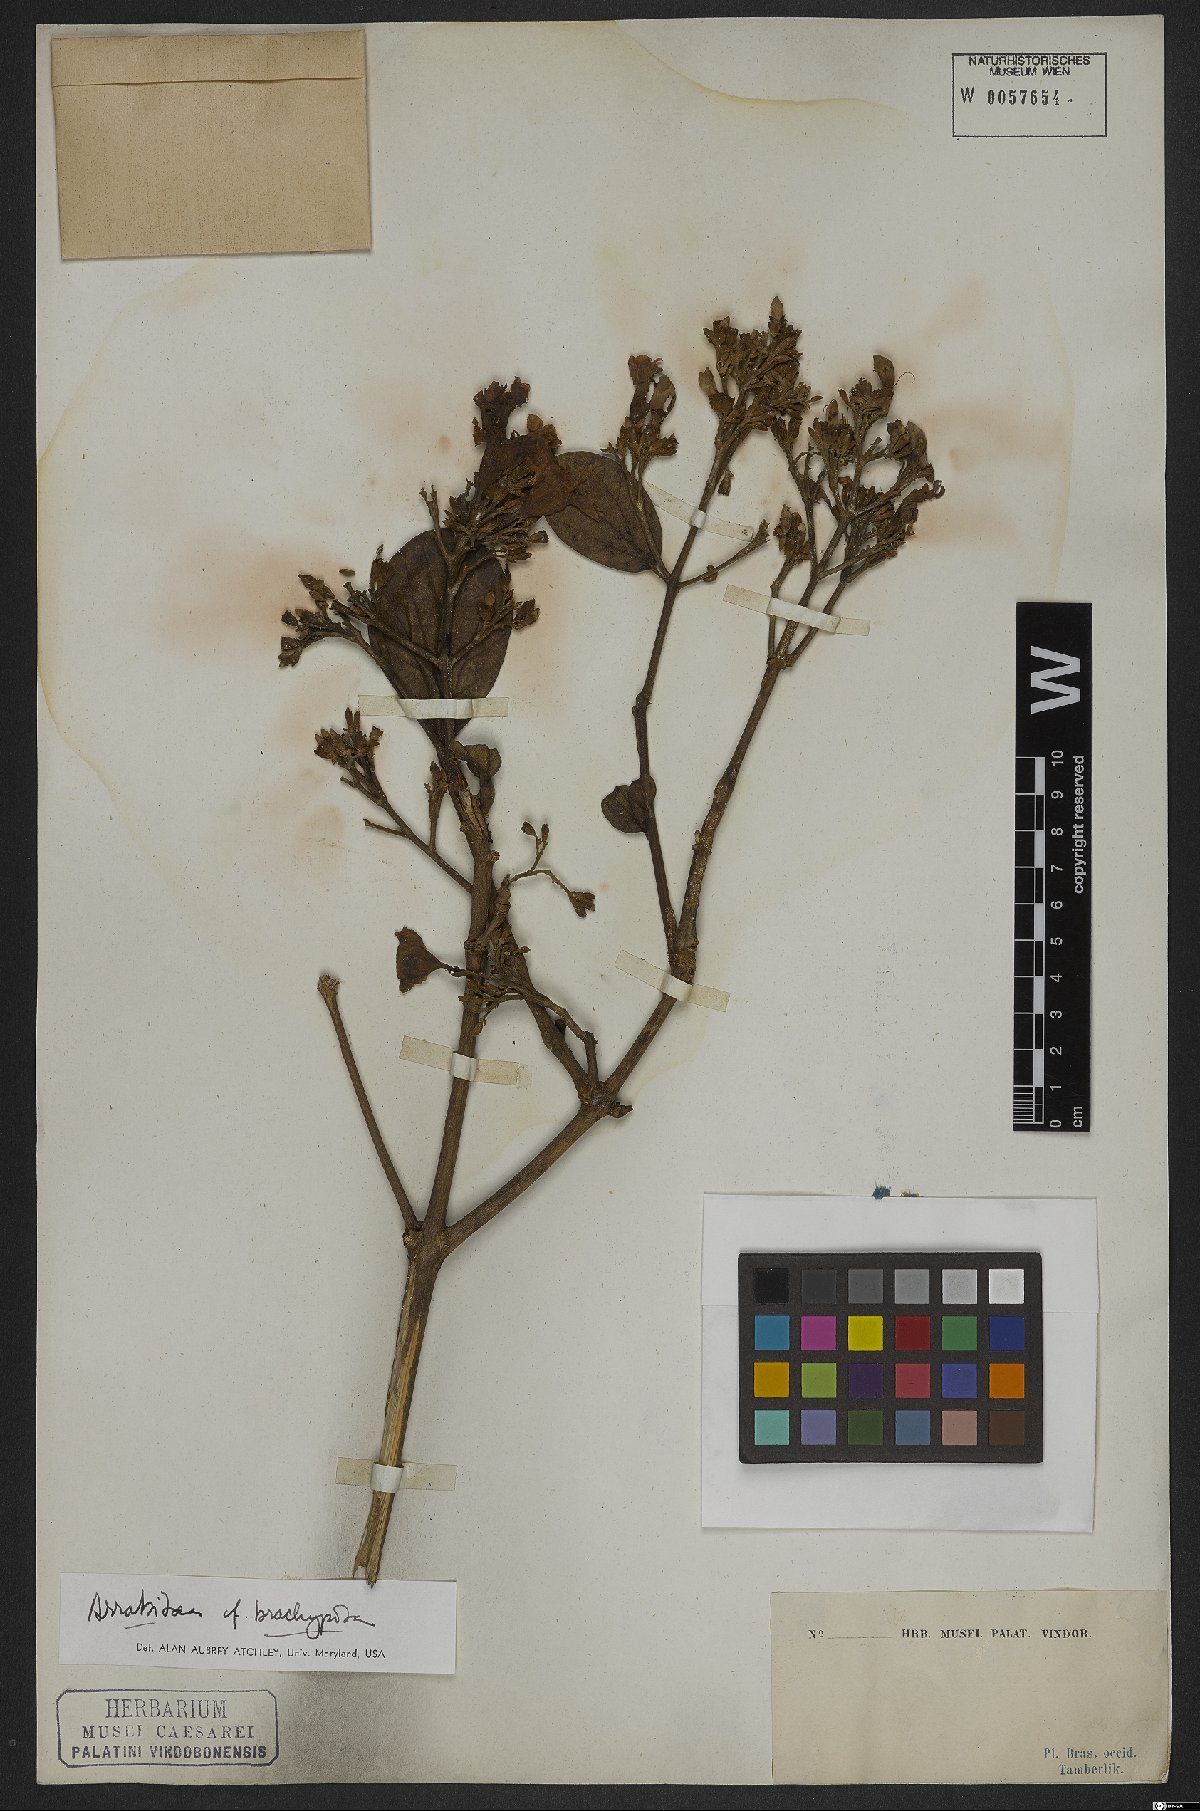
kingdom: Plantae
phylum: Tracheophyta
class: Magnoliopsida
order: Lamiales
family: Bignoniaceae
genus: Fridericia
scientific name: Fridericia platyphylla
